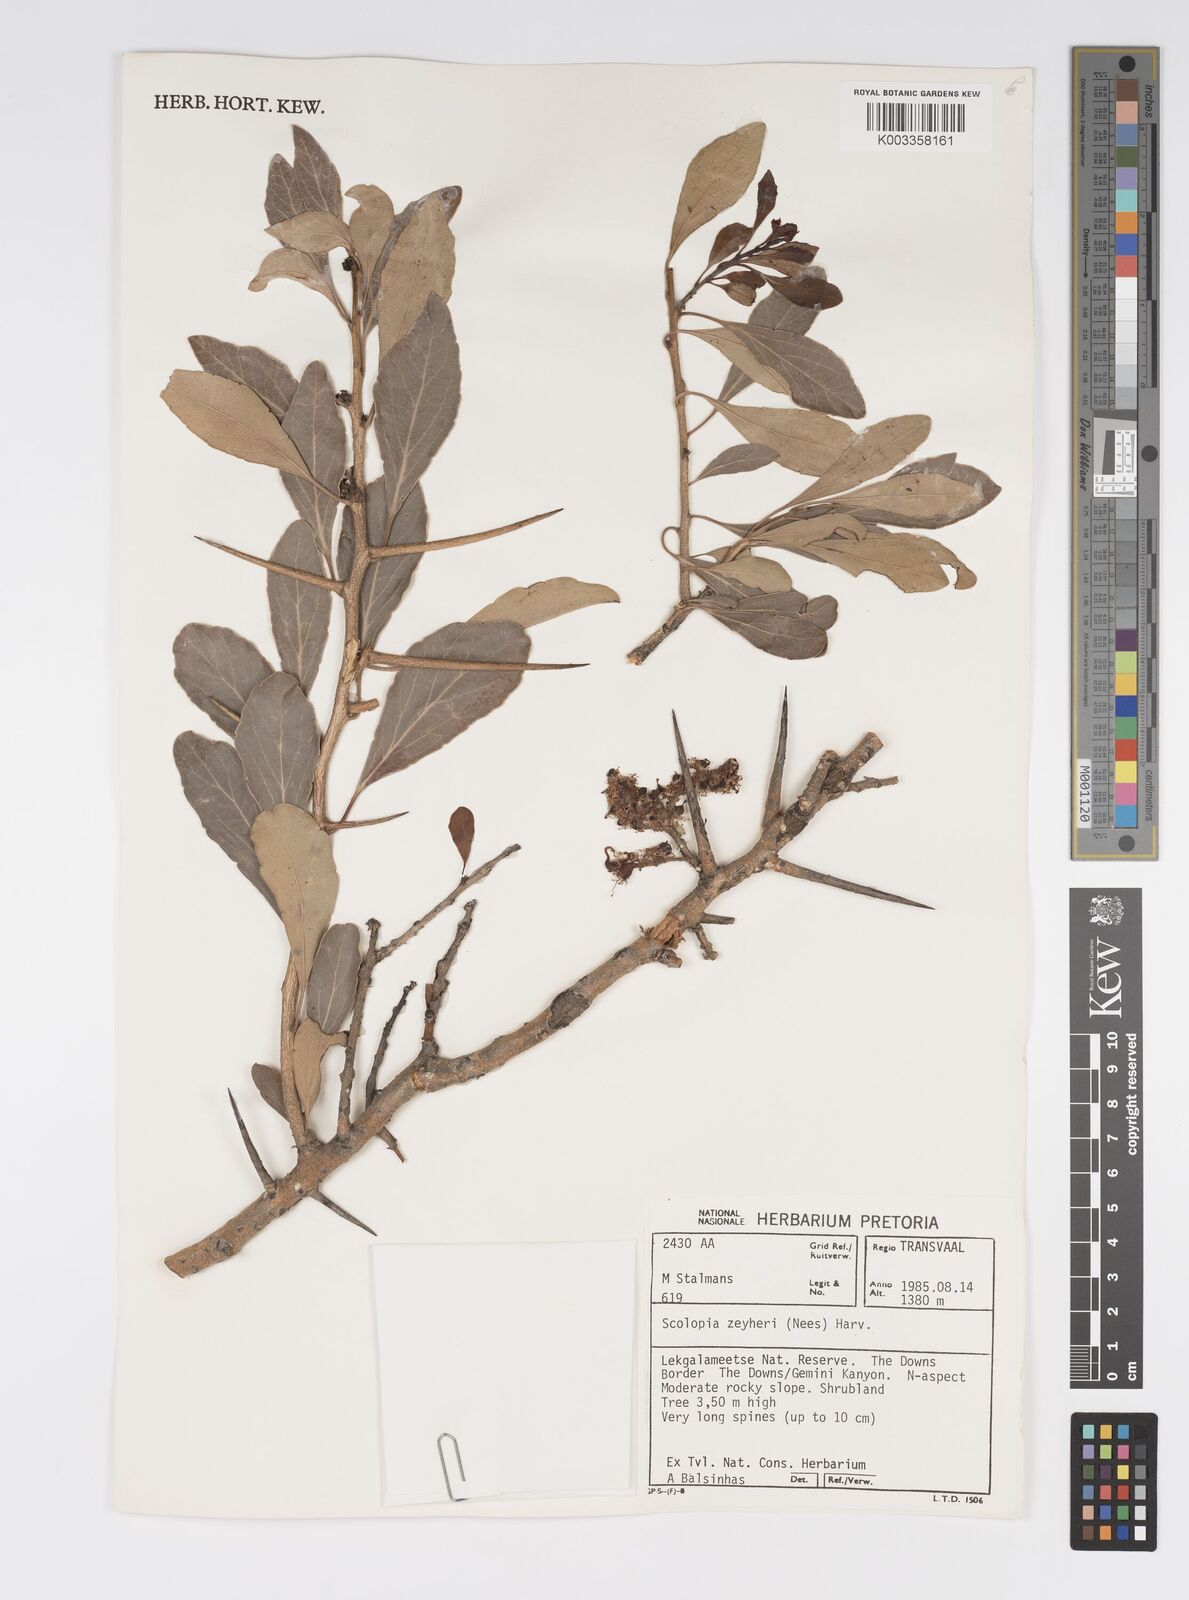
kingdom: Plantae
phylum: Tracheophyta
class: Magnoliopsida
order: Malpighiales
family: Salicaceae
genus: Scolopia
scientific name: Scolopia zeyheri
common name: Thorn pear
